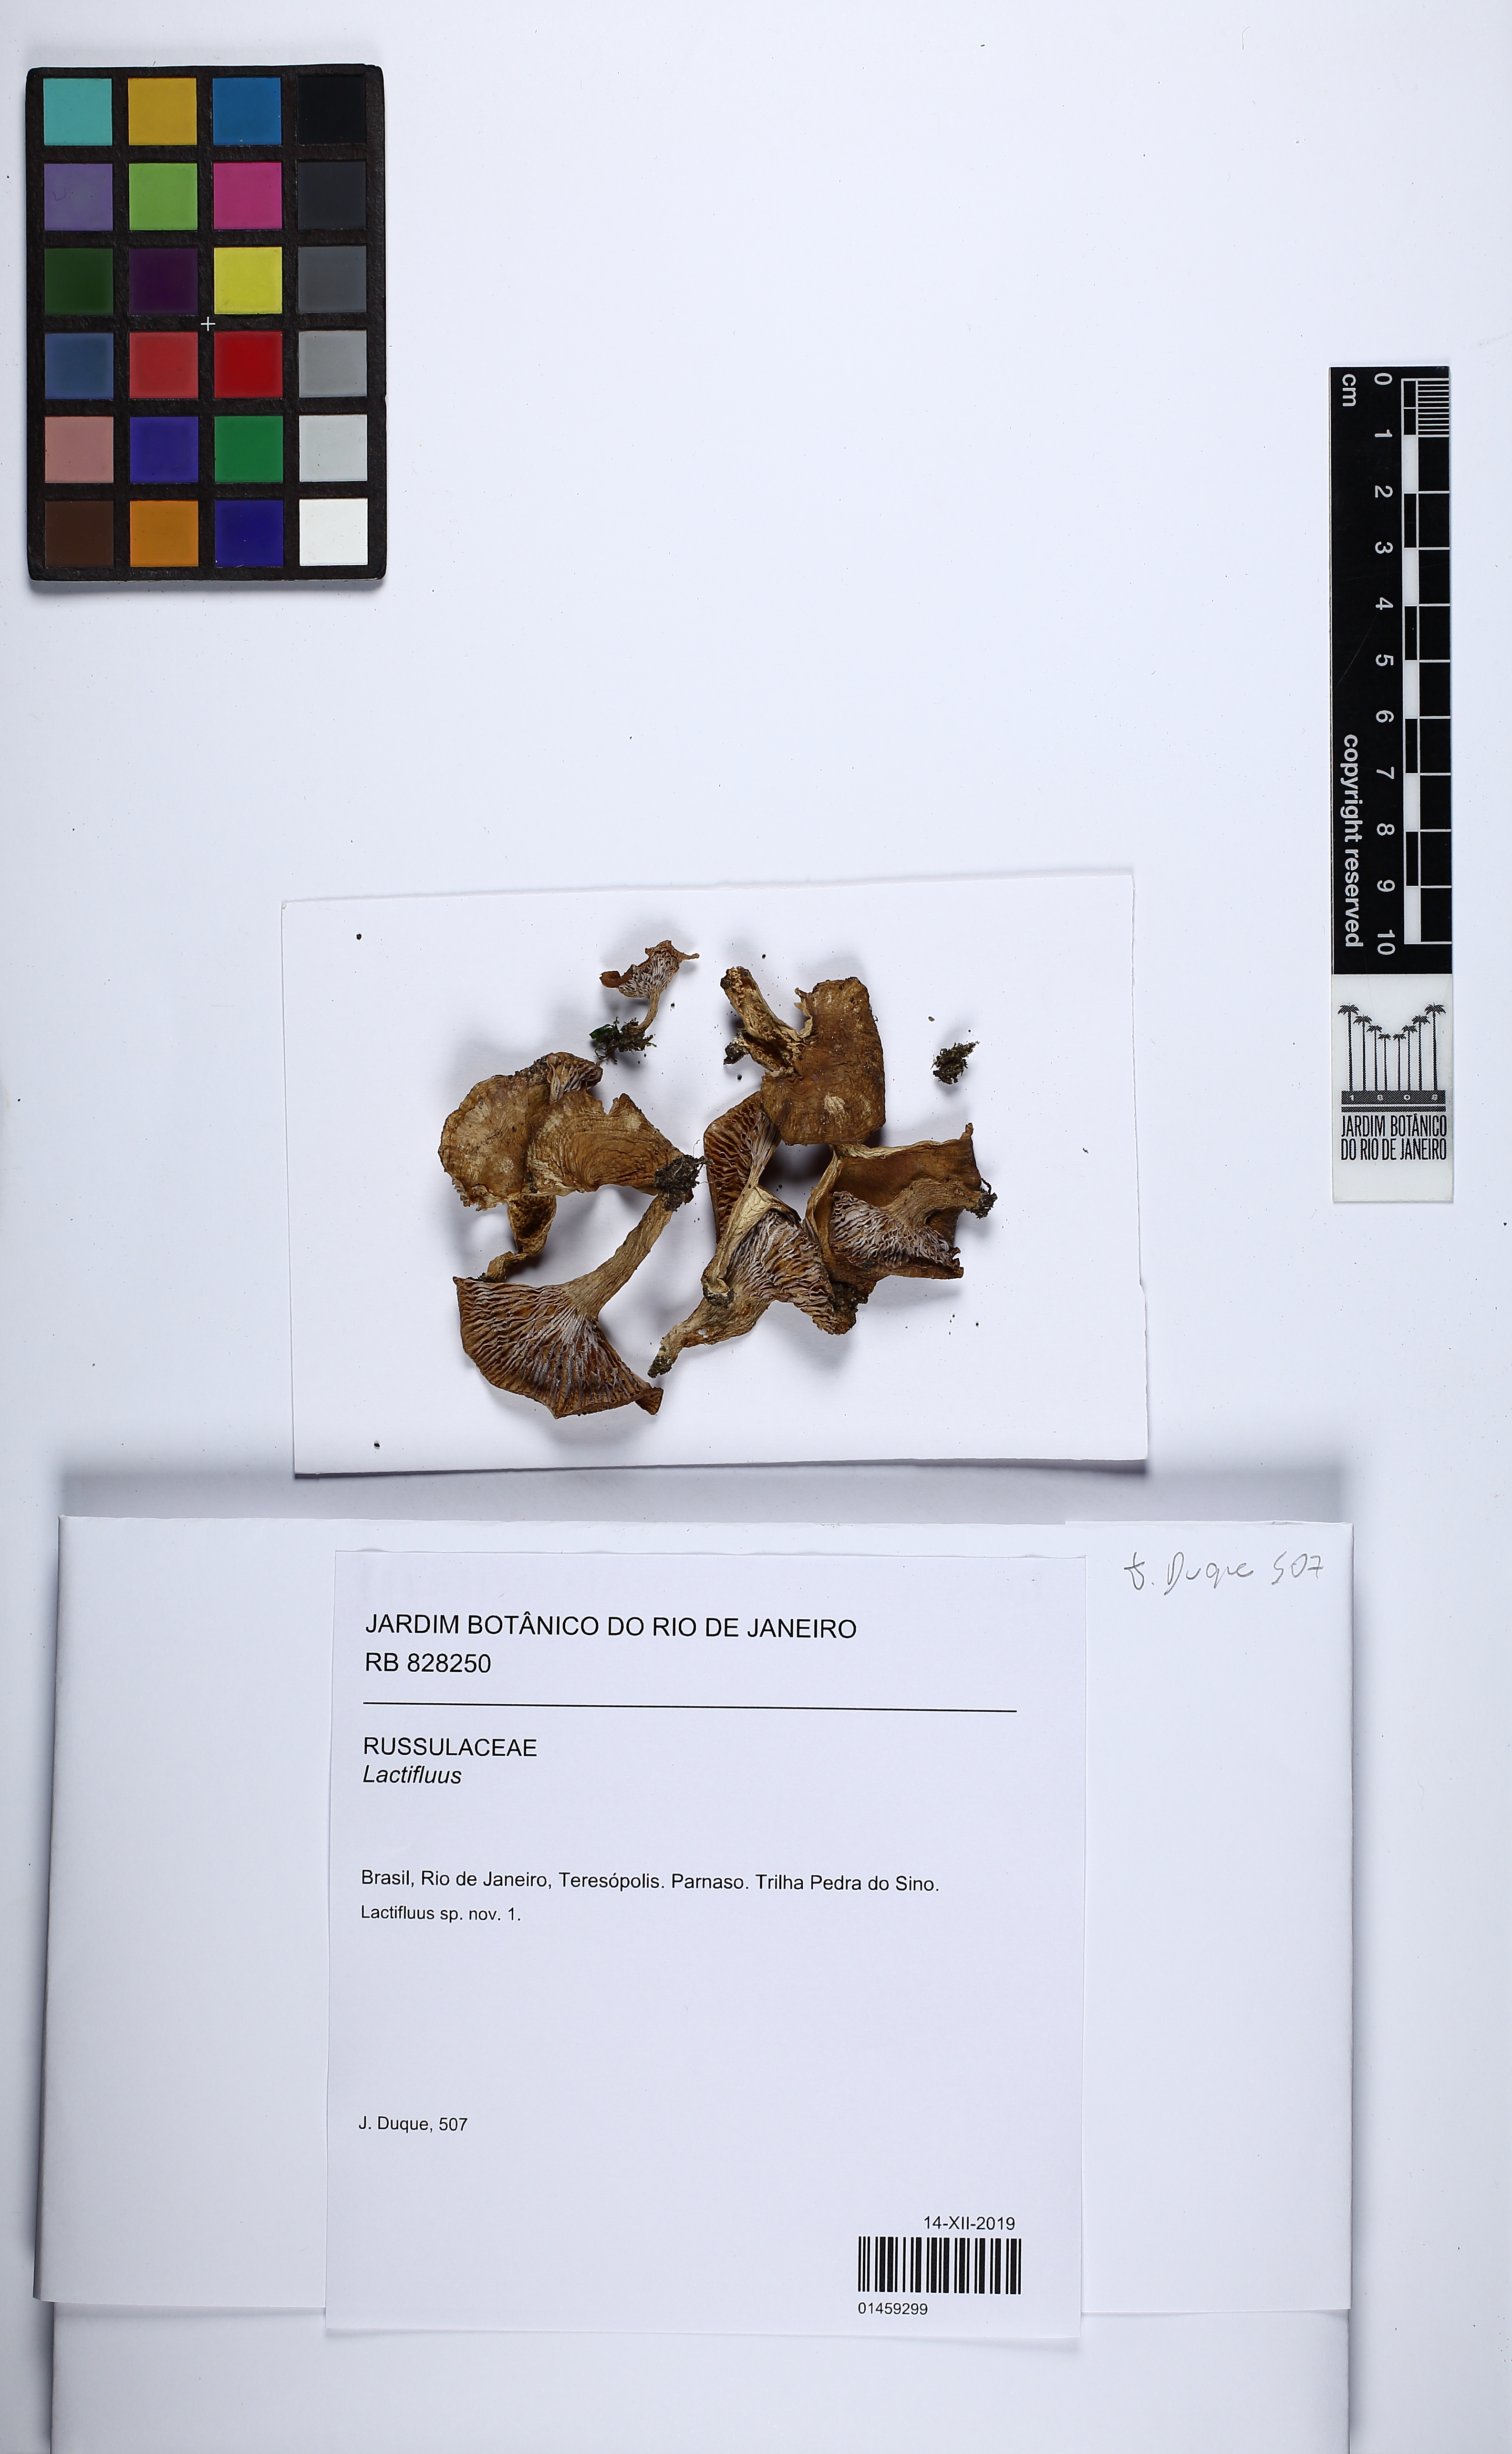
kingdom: Fungi
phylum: Basidiomycota
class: Agaricomycetes
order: Russulales
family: Russulaceae
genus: Lactifluus
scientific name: Lactifluus
